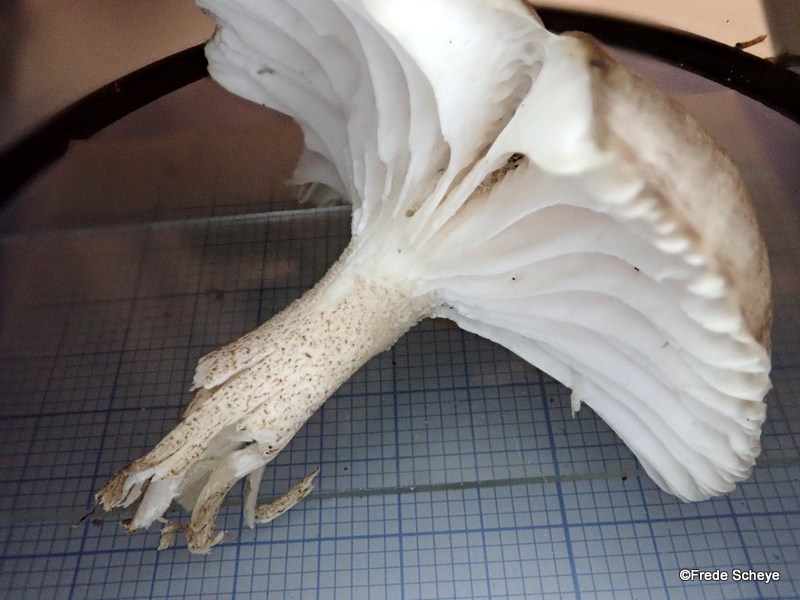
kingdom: Fungi
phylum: Basidiomycota
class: Agaricomycetes
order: Agaricales
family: Hygrophoraceae
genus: Hygrophorus
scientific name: Hygrophorus pustulatus
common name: mørkprikket sneglehat
